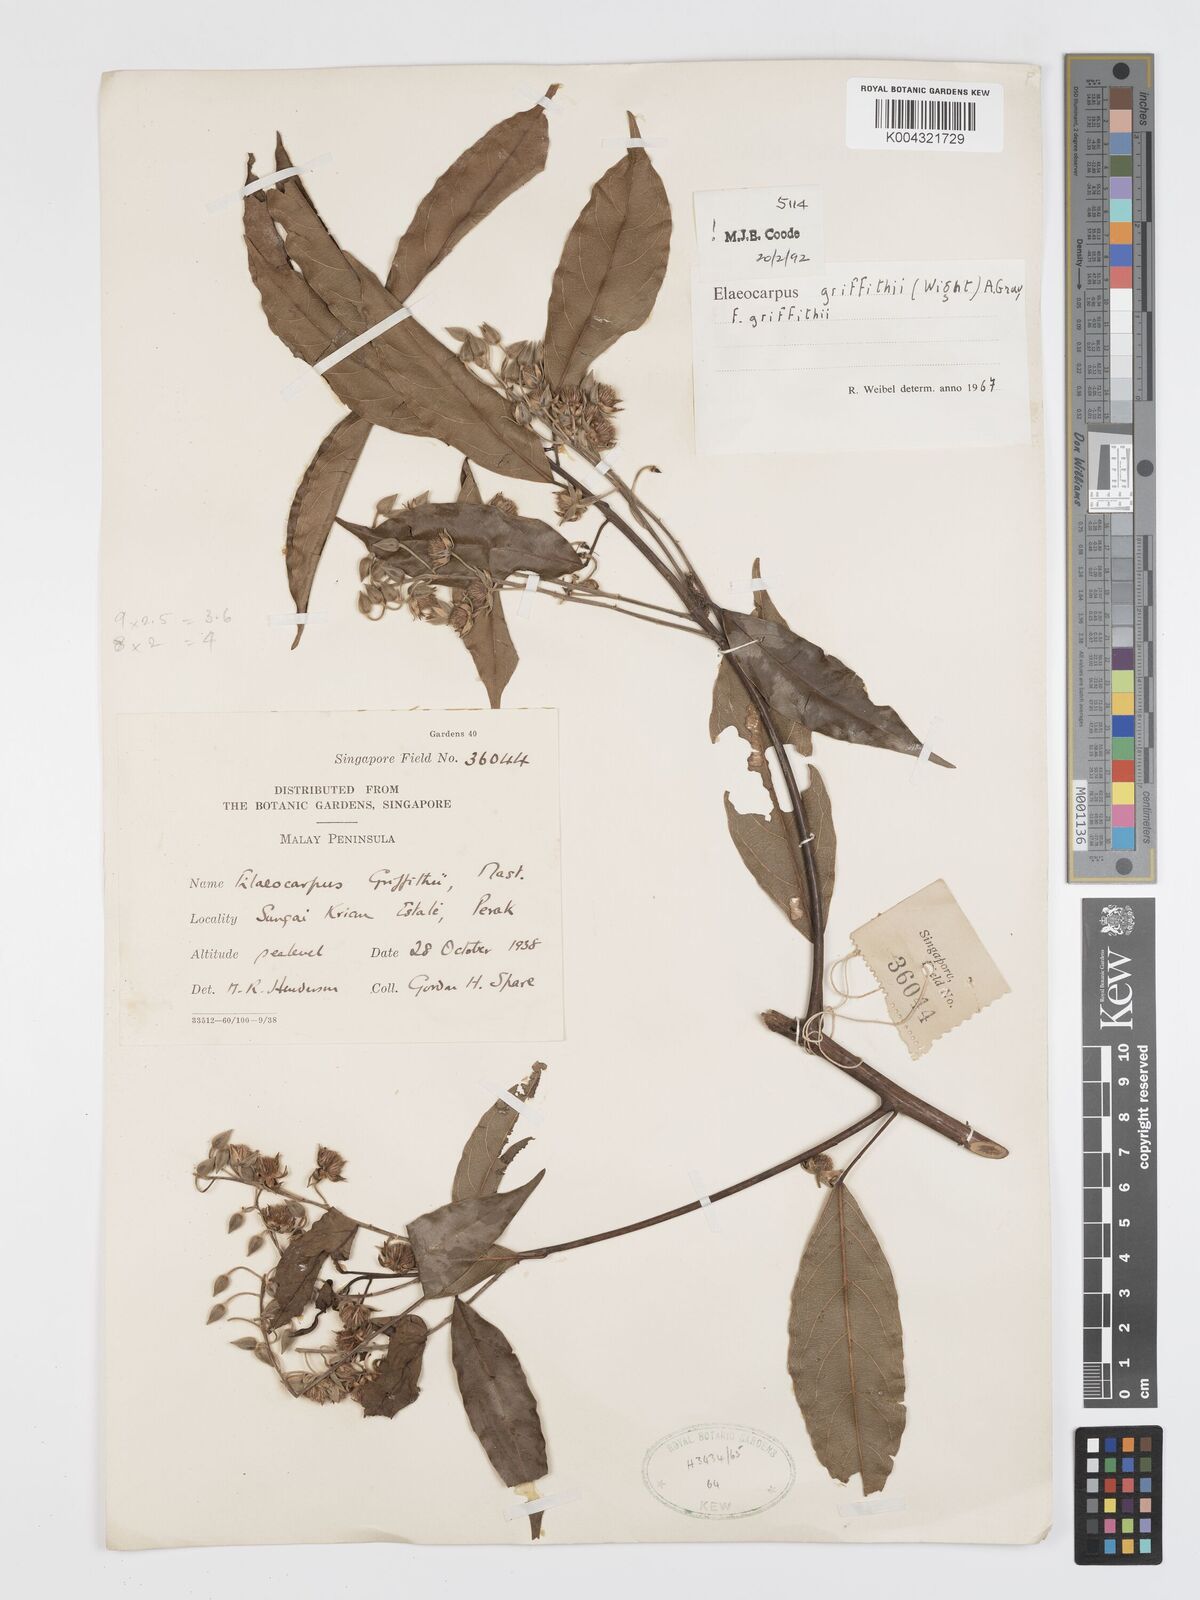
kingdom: Plantae
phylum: Tracheophyta
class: Magnoliopsida
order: Oxalidales
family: Elaeocarpaceae
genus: Elaeocarpus
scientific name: Elaeocarpus griffithii
